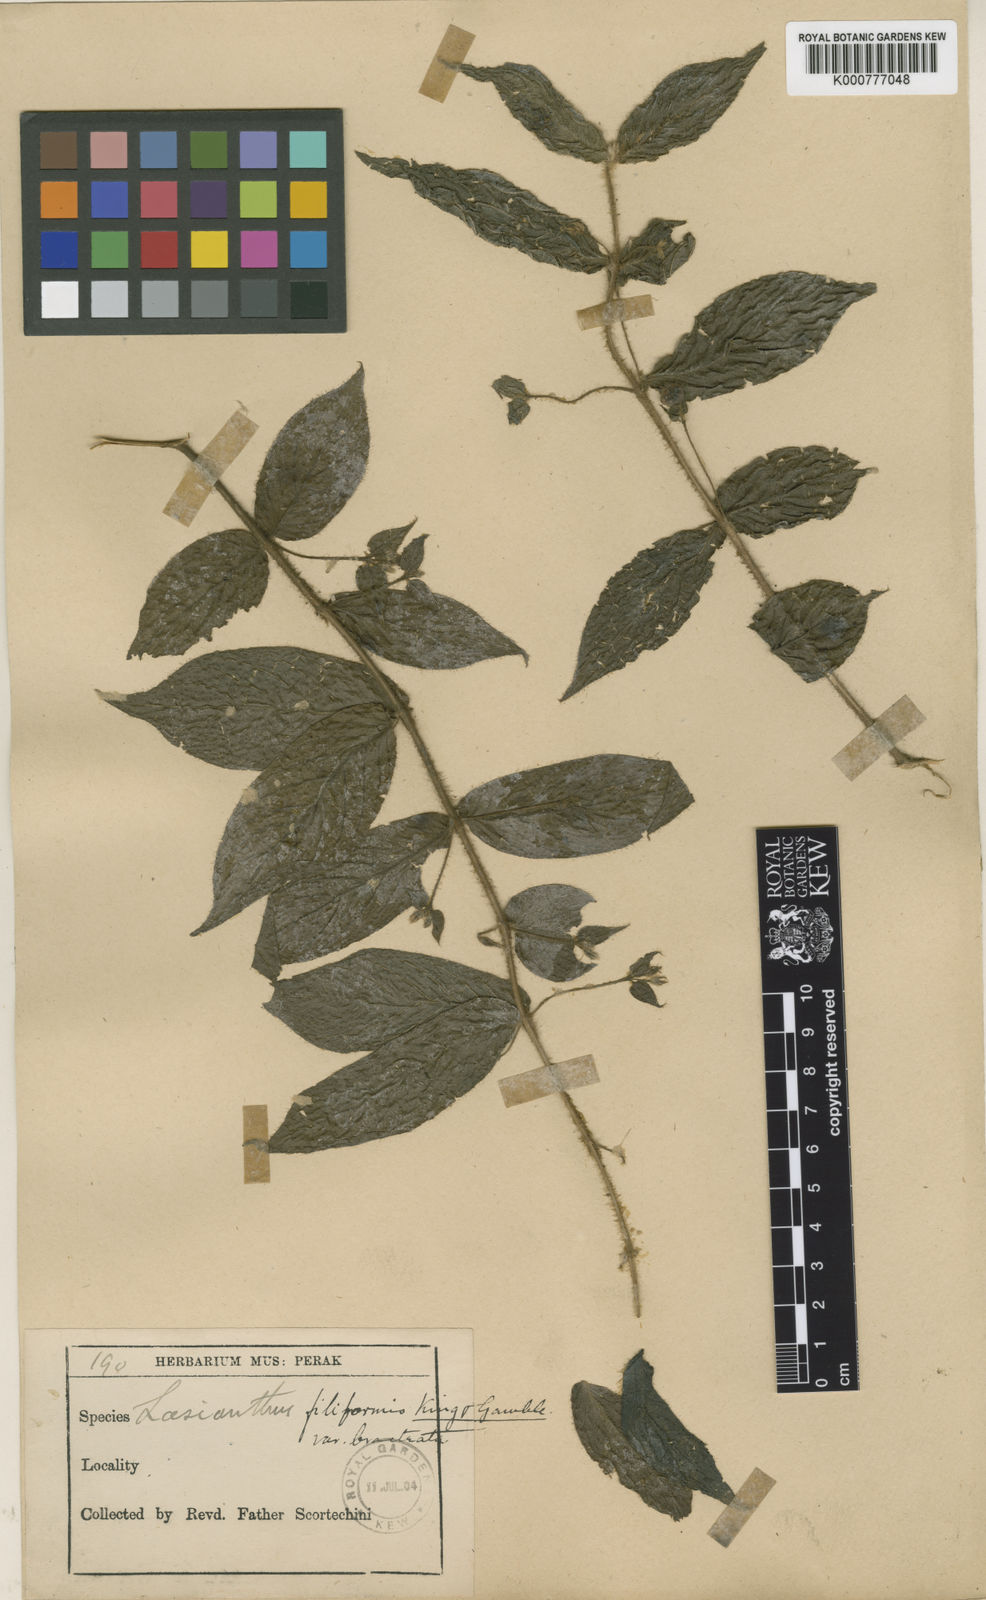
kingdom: Plantae
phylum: Tracheophyta
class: Magnoliopsida
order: Gentianales
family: Rubiaceae
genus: Lasianthus
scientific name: Lasianthus filiformis
